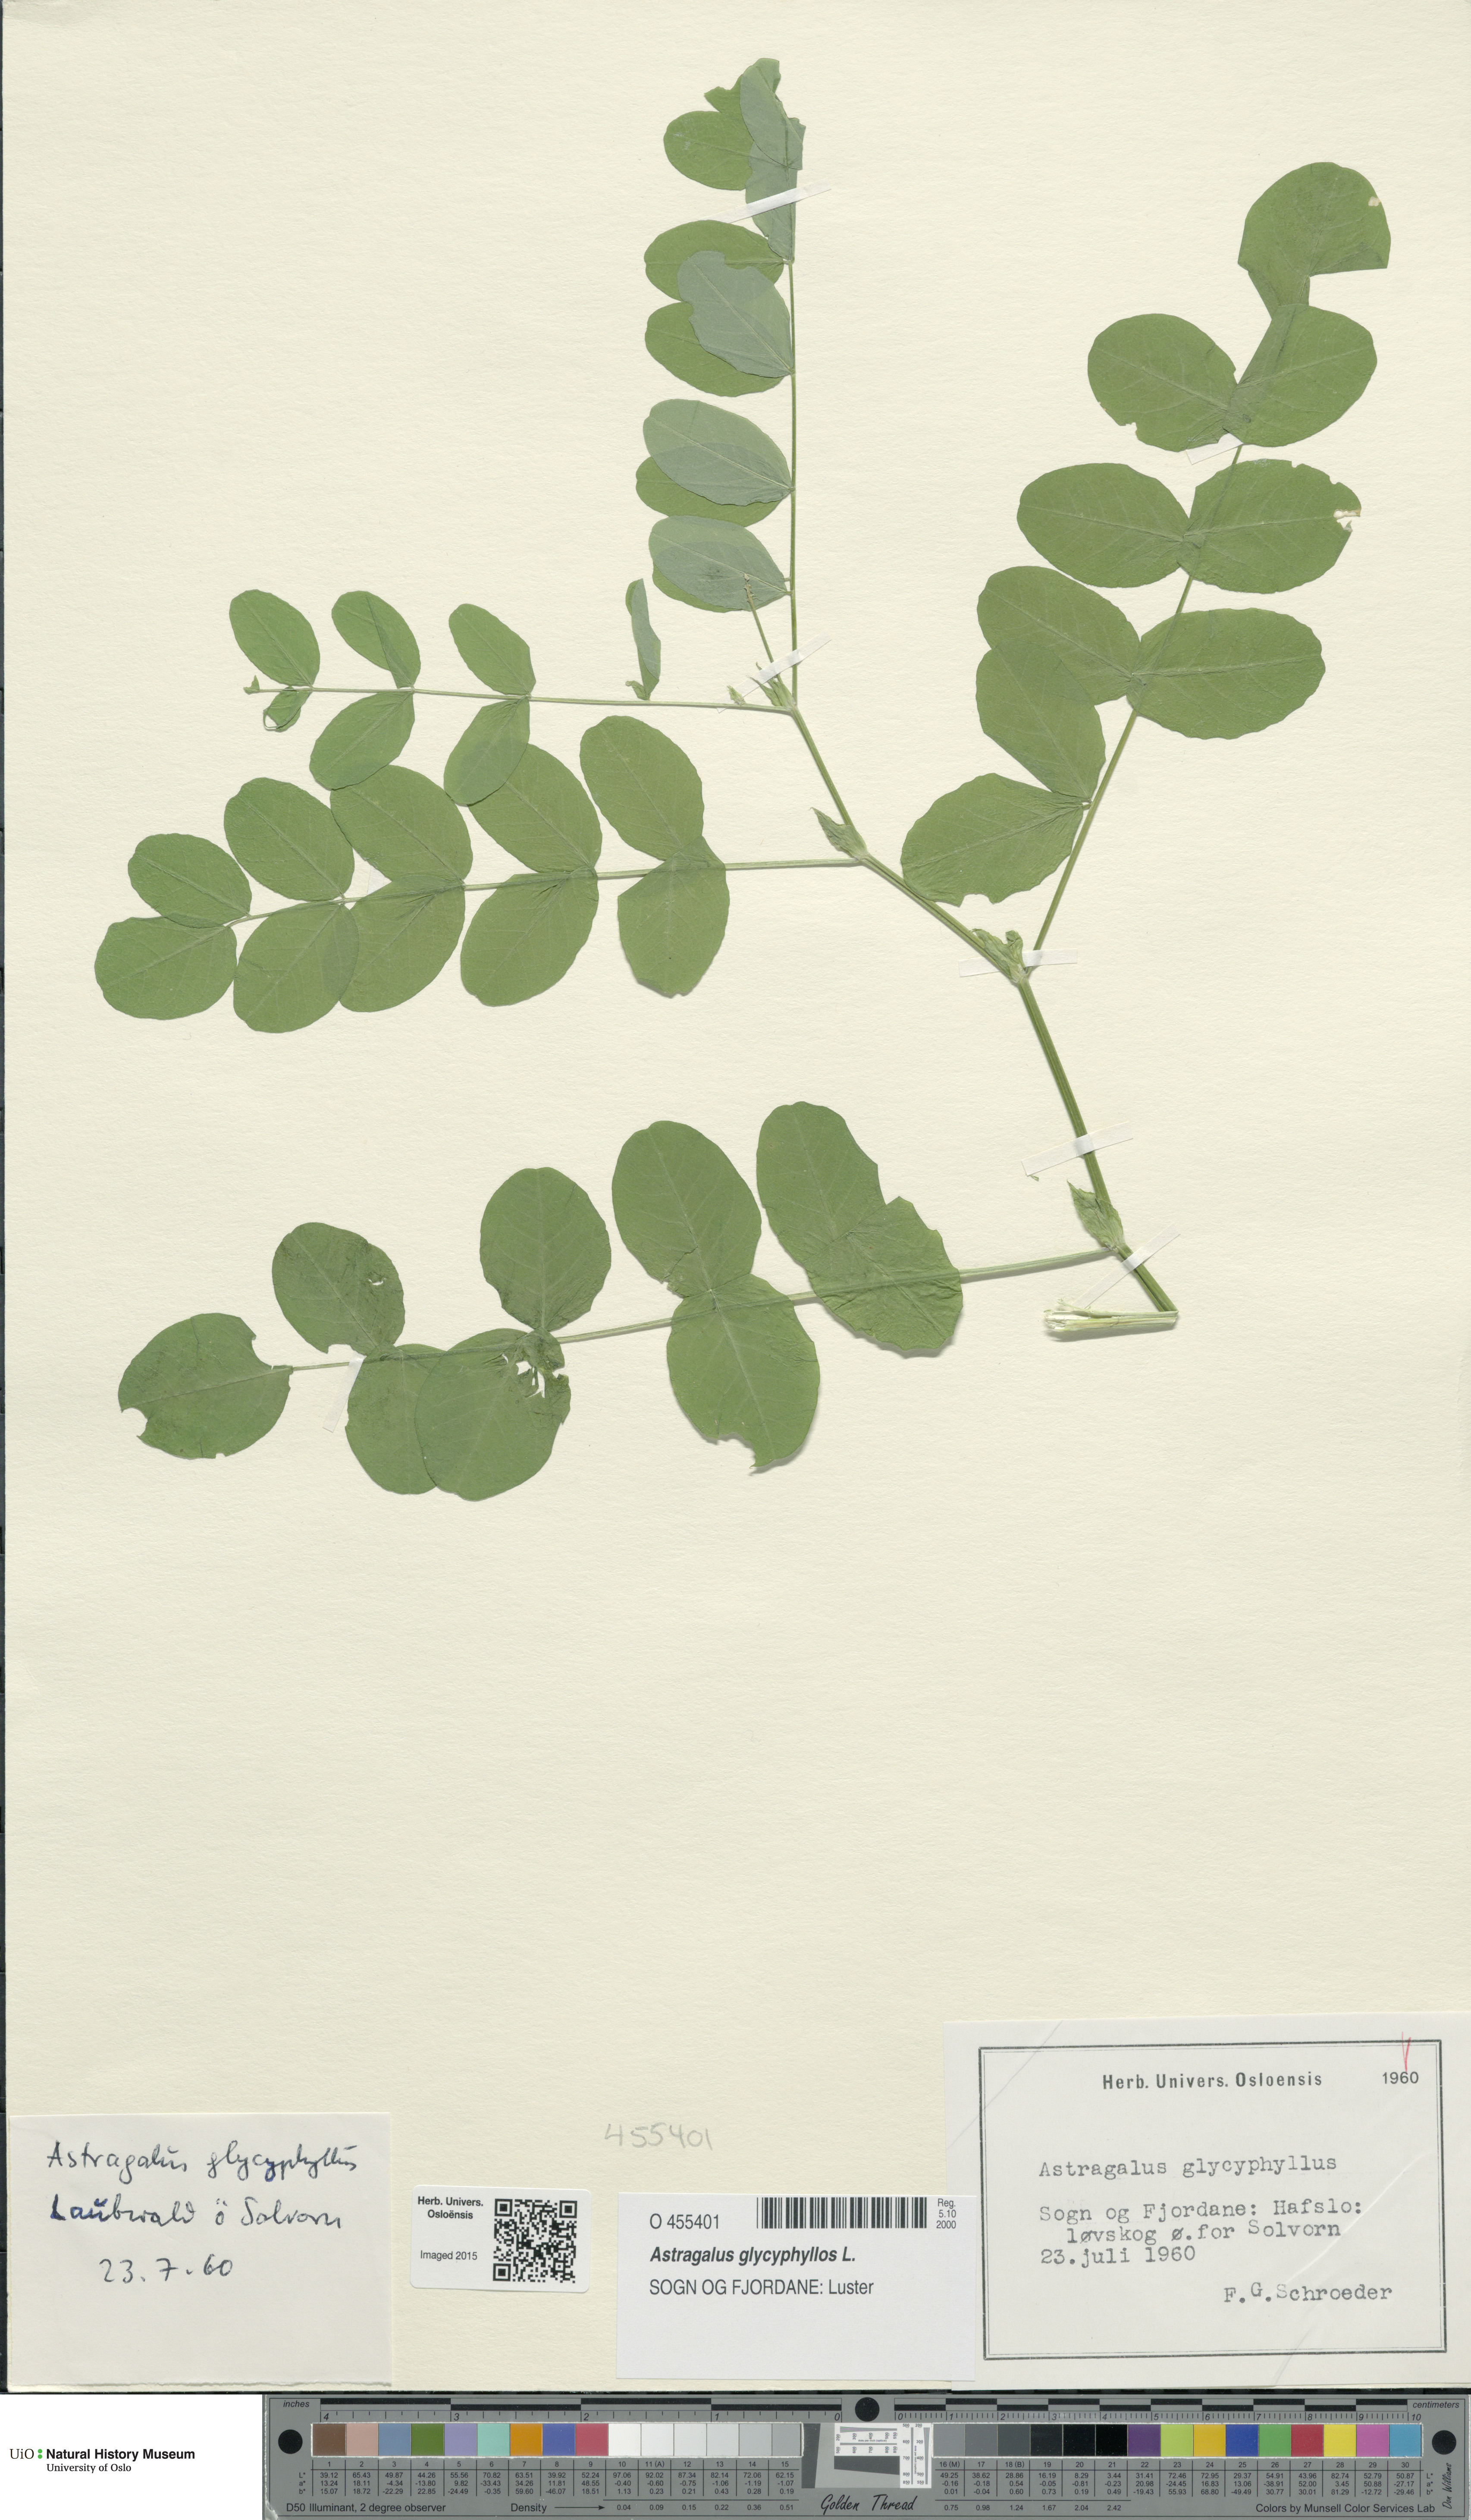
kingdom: Plantae
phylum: Tracheophyta
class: Magnoliopsida
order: Fabales
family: Fabaceae
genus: Astragalus
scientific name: Astragalus glycyphyllos
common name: Wild liquorice
